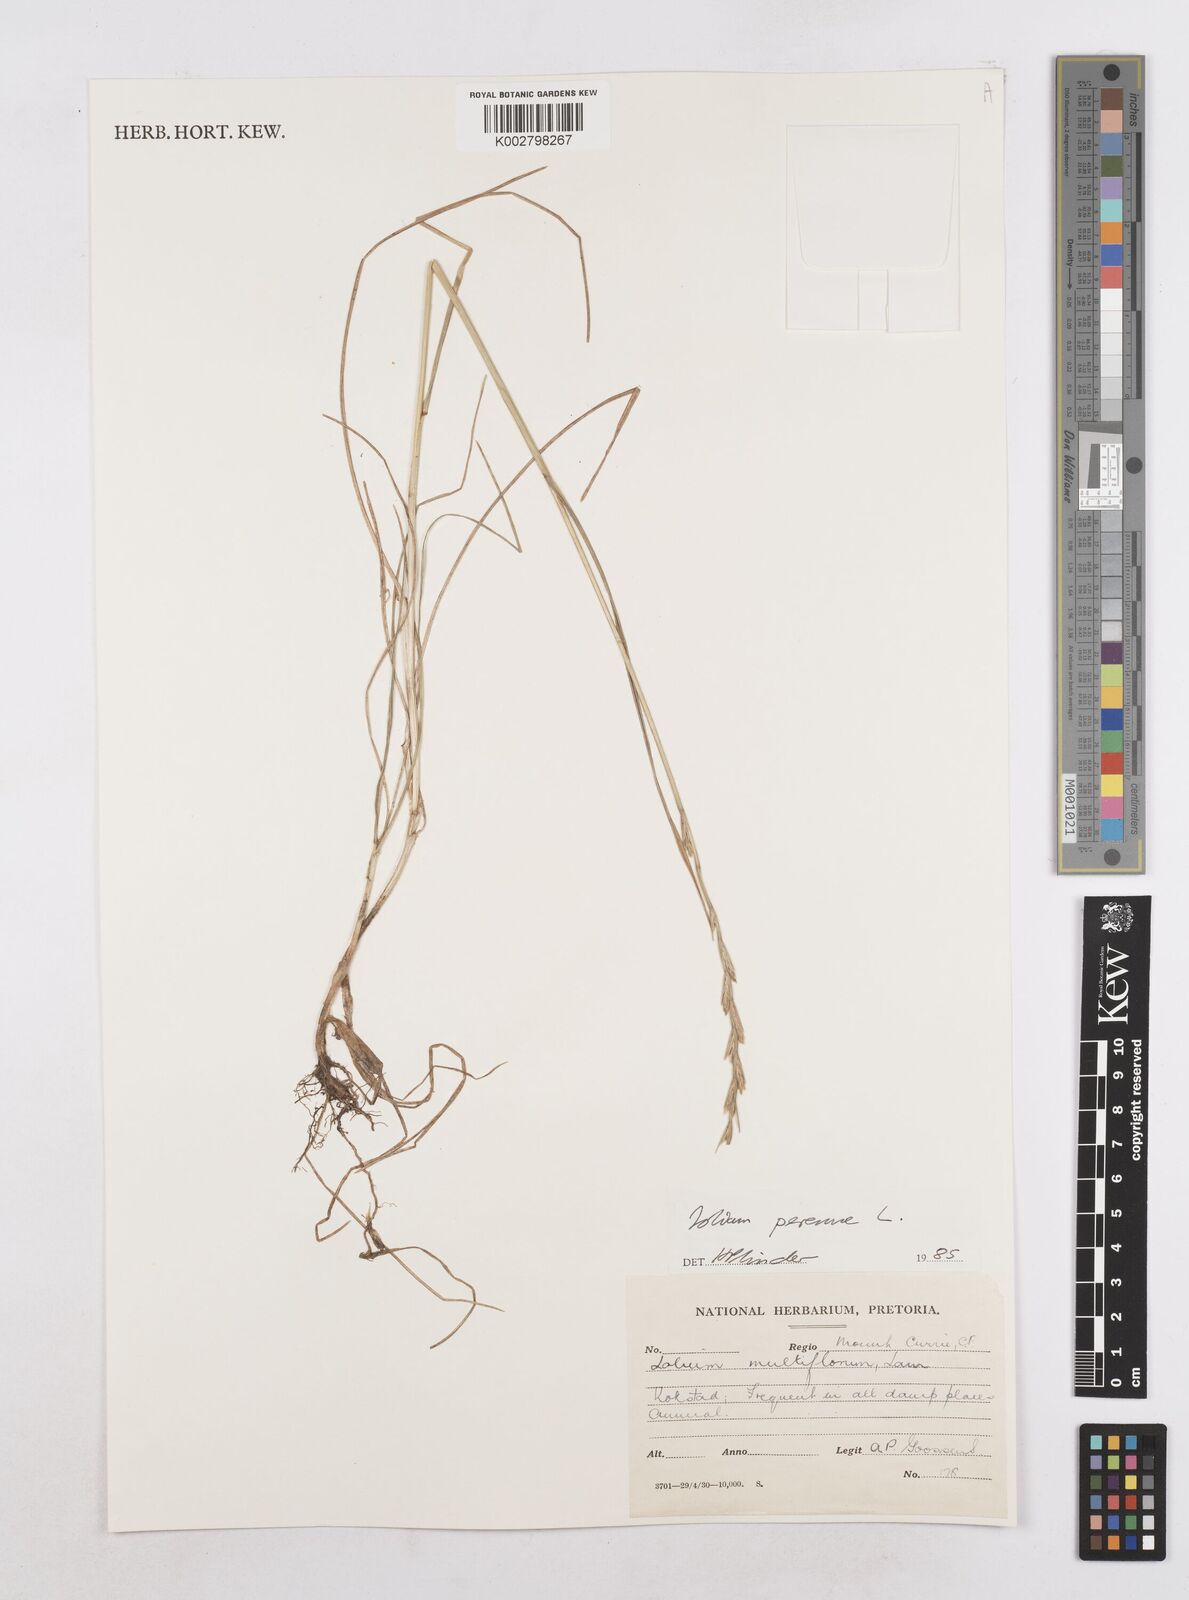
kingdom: Plantae
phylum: Tracheophyta
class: Liliopsida
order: Poales
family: Poaceae
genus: Lolium
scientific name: Lolium perenne
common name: Perennial ryegrass
